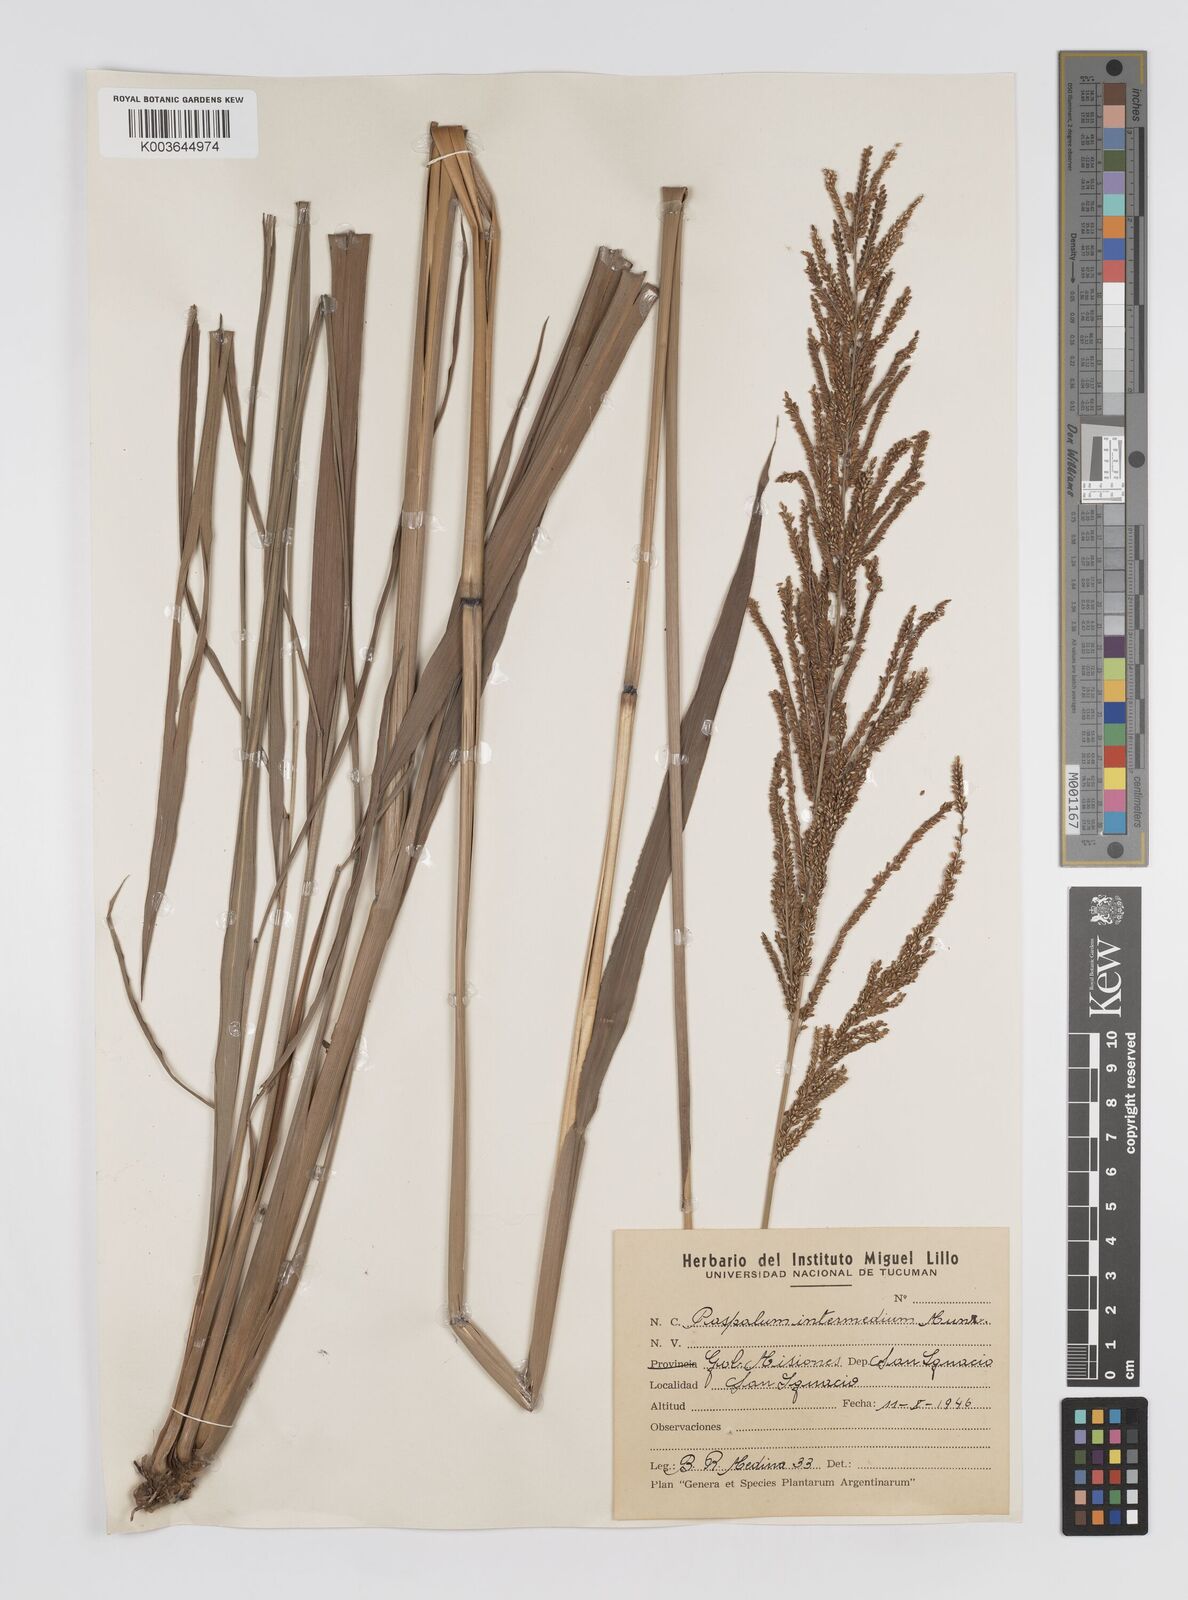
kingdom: Plantae
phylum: Tracheophyta
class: Liliopsida
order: Poales
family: Poaceae
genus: Paspalum
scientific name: Paspalum quadrifarium
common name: Tussock paspalum
